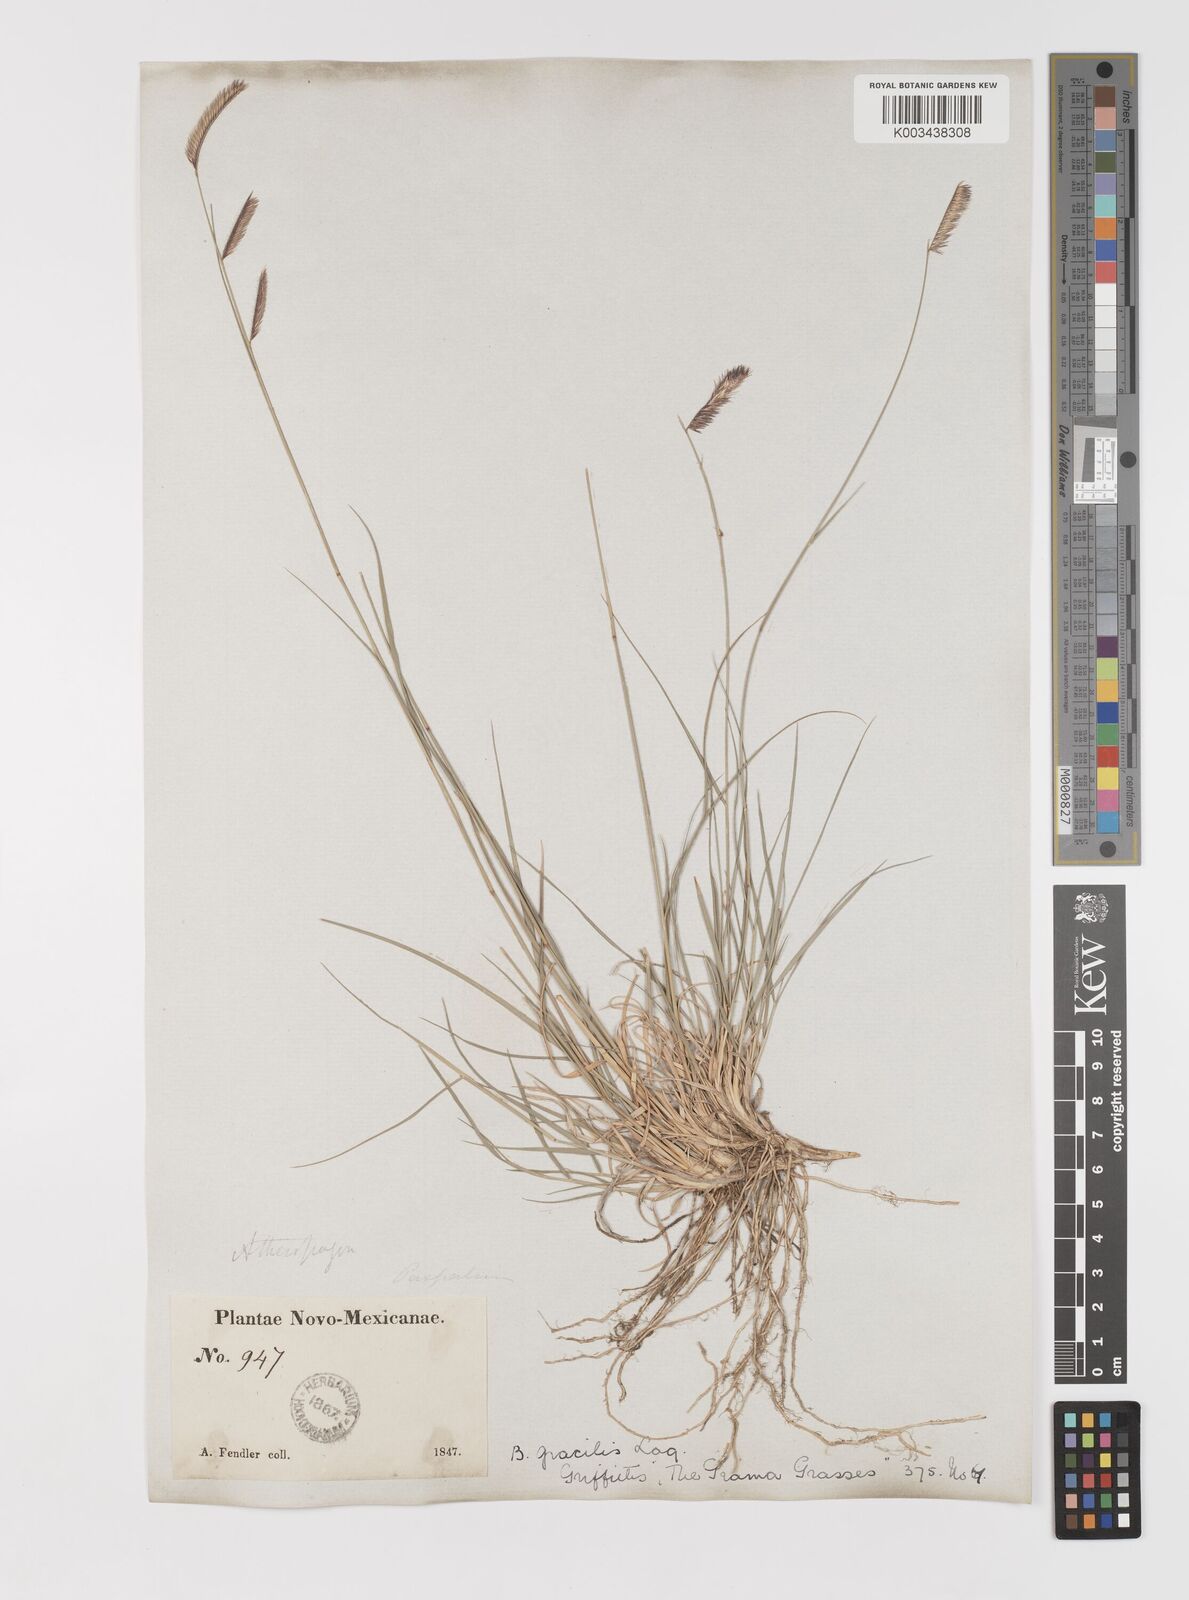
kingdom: Plantae
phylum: Tracheophyta
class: Liliopsida
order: Poales
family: Poaceae
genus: Bouteloua
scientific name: Bouteloua
